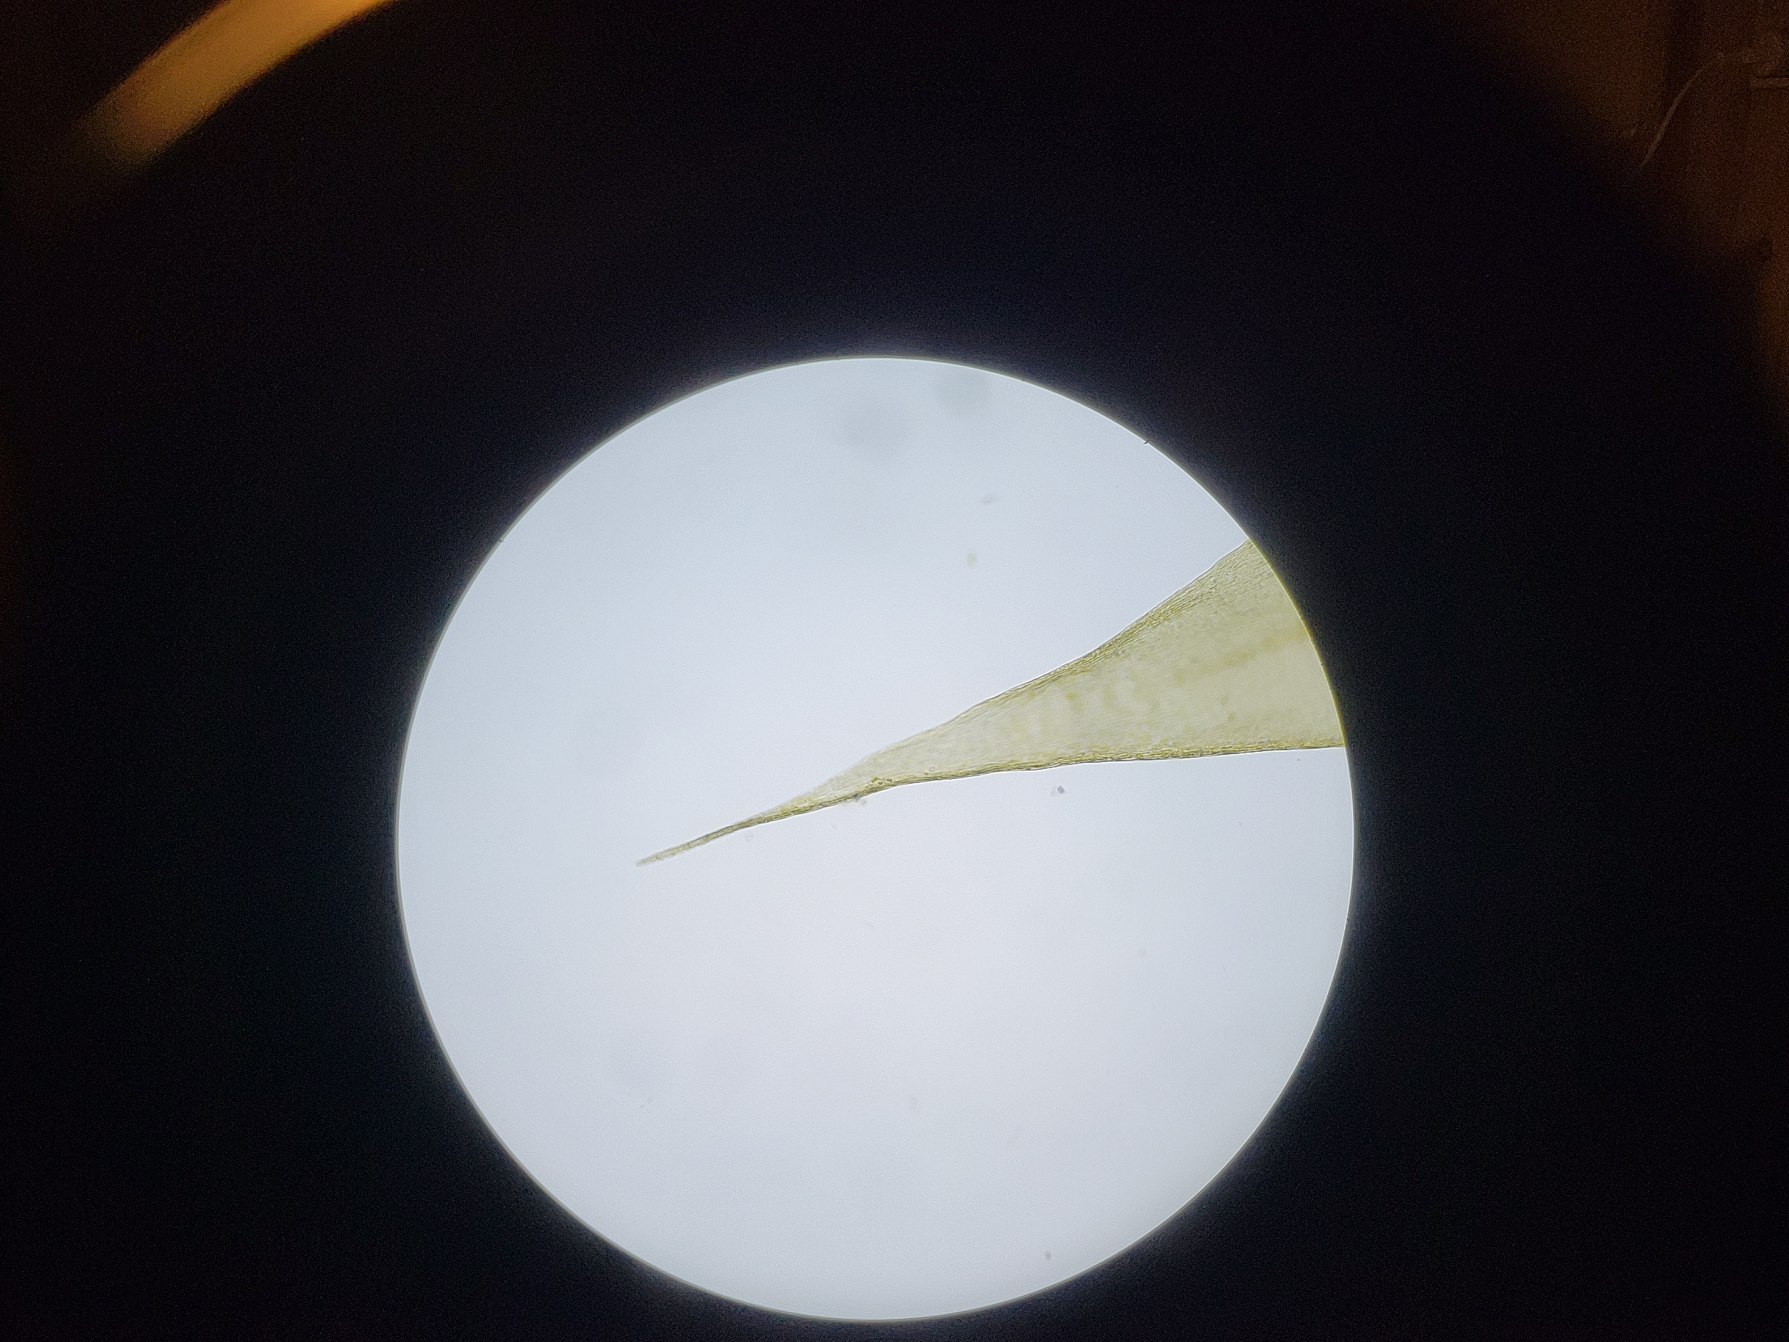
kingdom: Plantae
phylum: Bryophyta
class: Bryopsida
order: Hypnales
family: Amblystegiaceae
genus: Drepanocladus
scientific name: Drepanocladus polygamus
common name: Kyst-guldstjernemos
